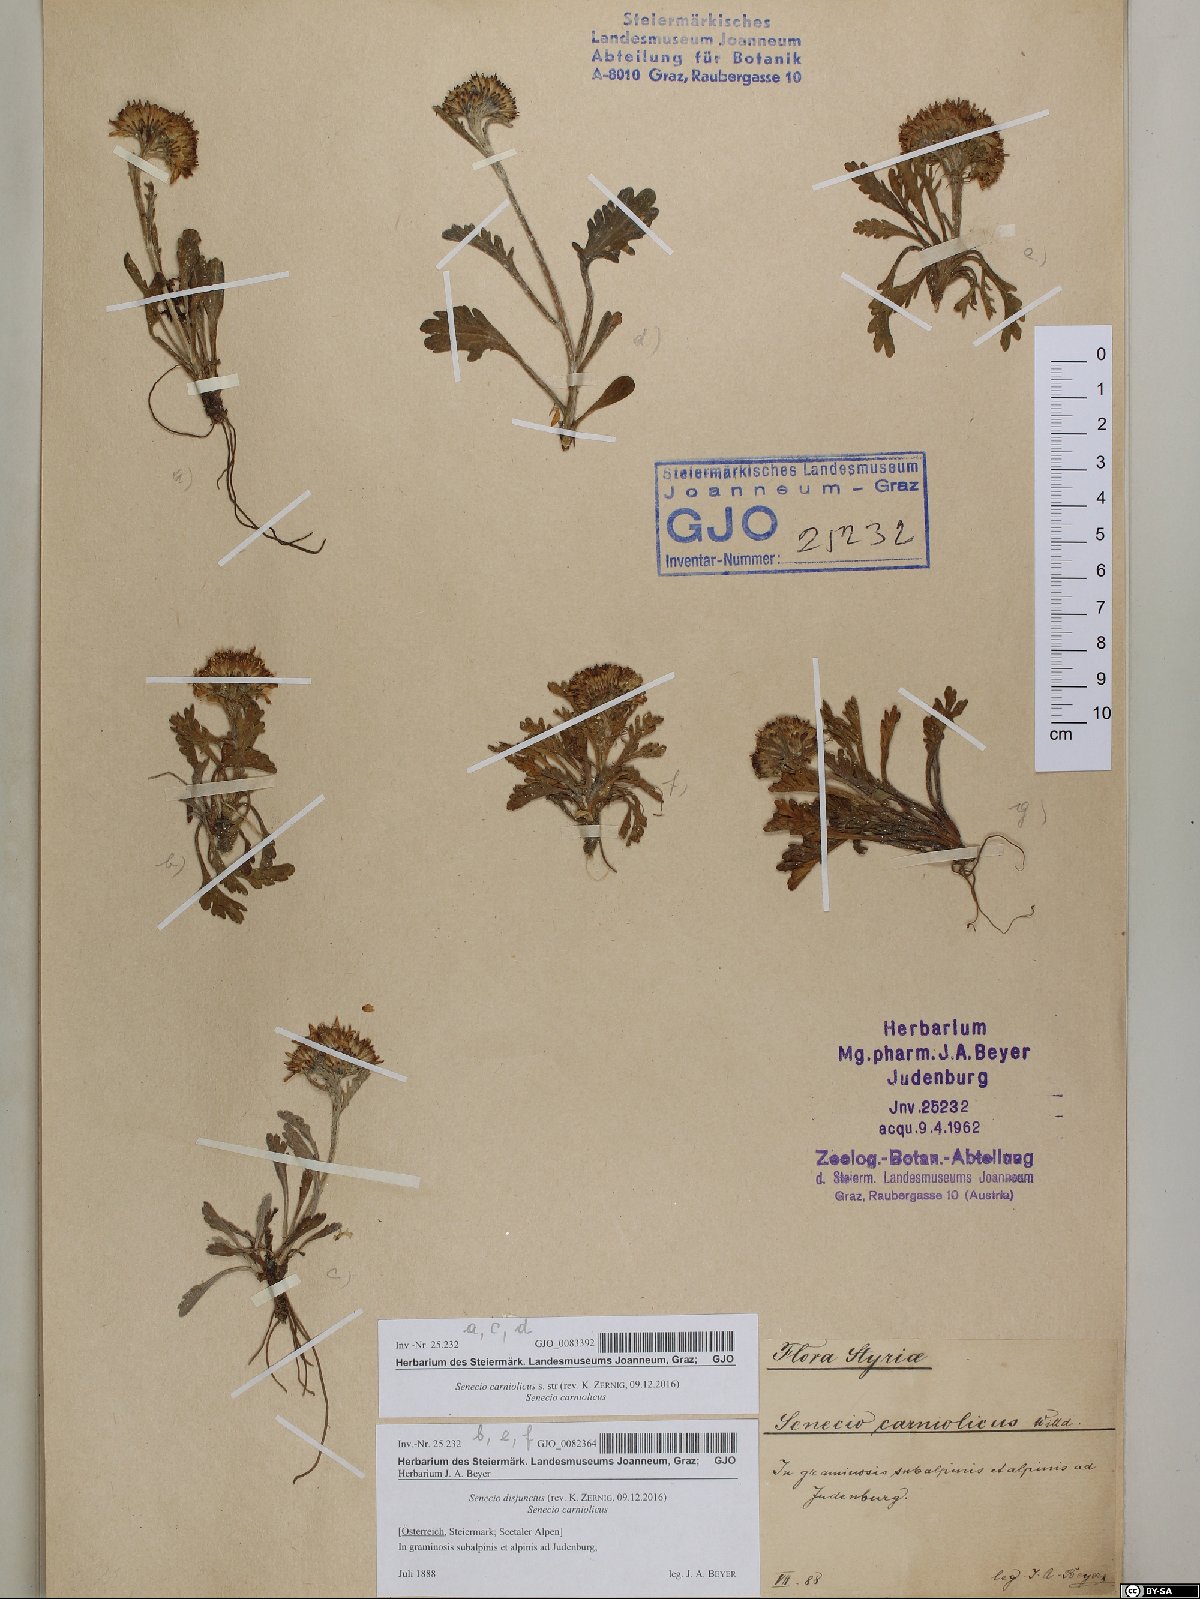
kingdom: Plantae
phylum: Tracheophyta
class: Magnoliopsida
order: Asterales
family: Asteraceae
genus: Jacobaea
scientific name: Jacobaea disjuncta
